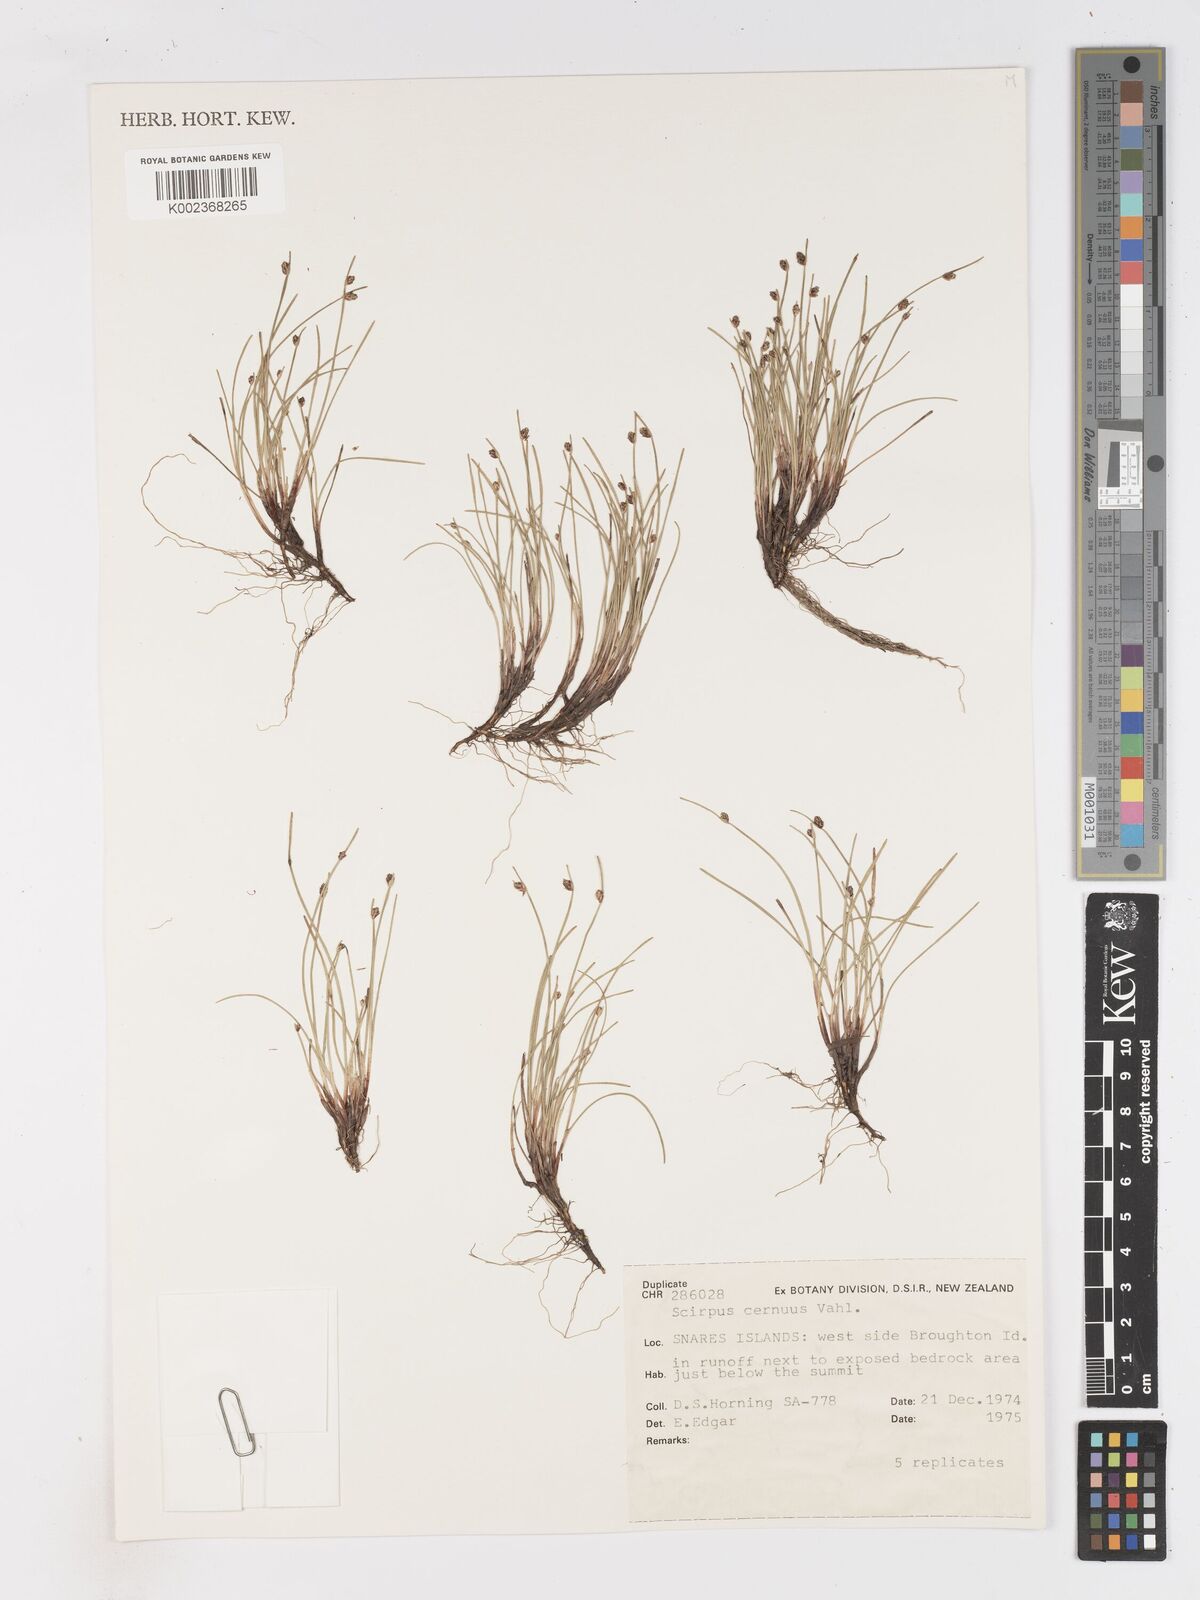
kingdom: Plantae
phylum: Tracheophyta
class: Liliopsida
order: Poales
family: Cyperaceae
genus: Isolepis
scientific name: Isolepis cernua
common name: Slender club-rush
